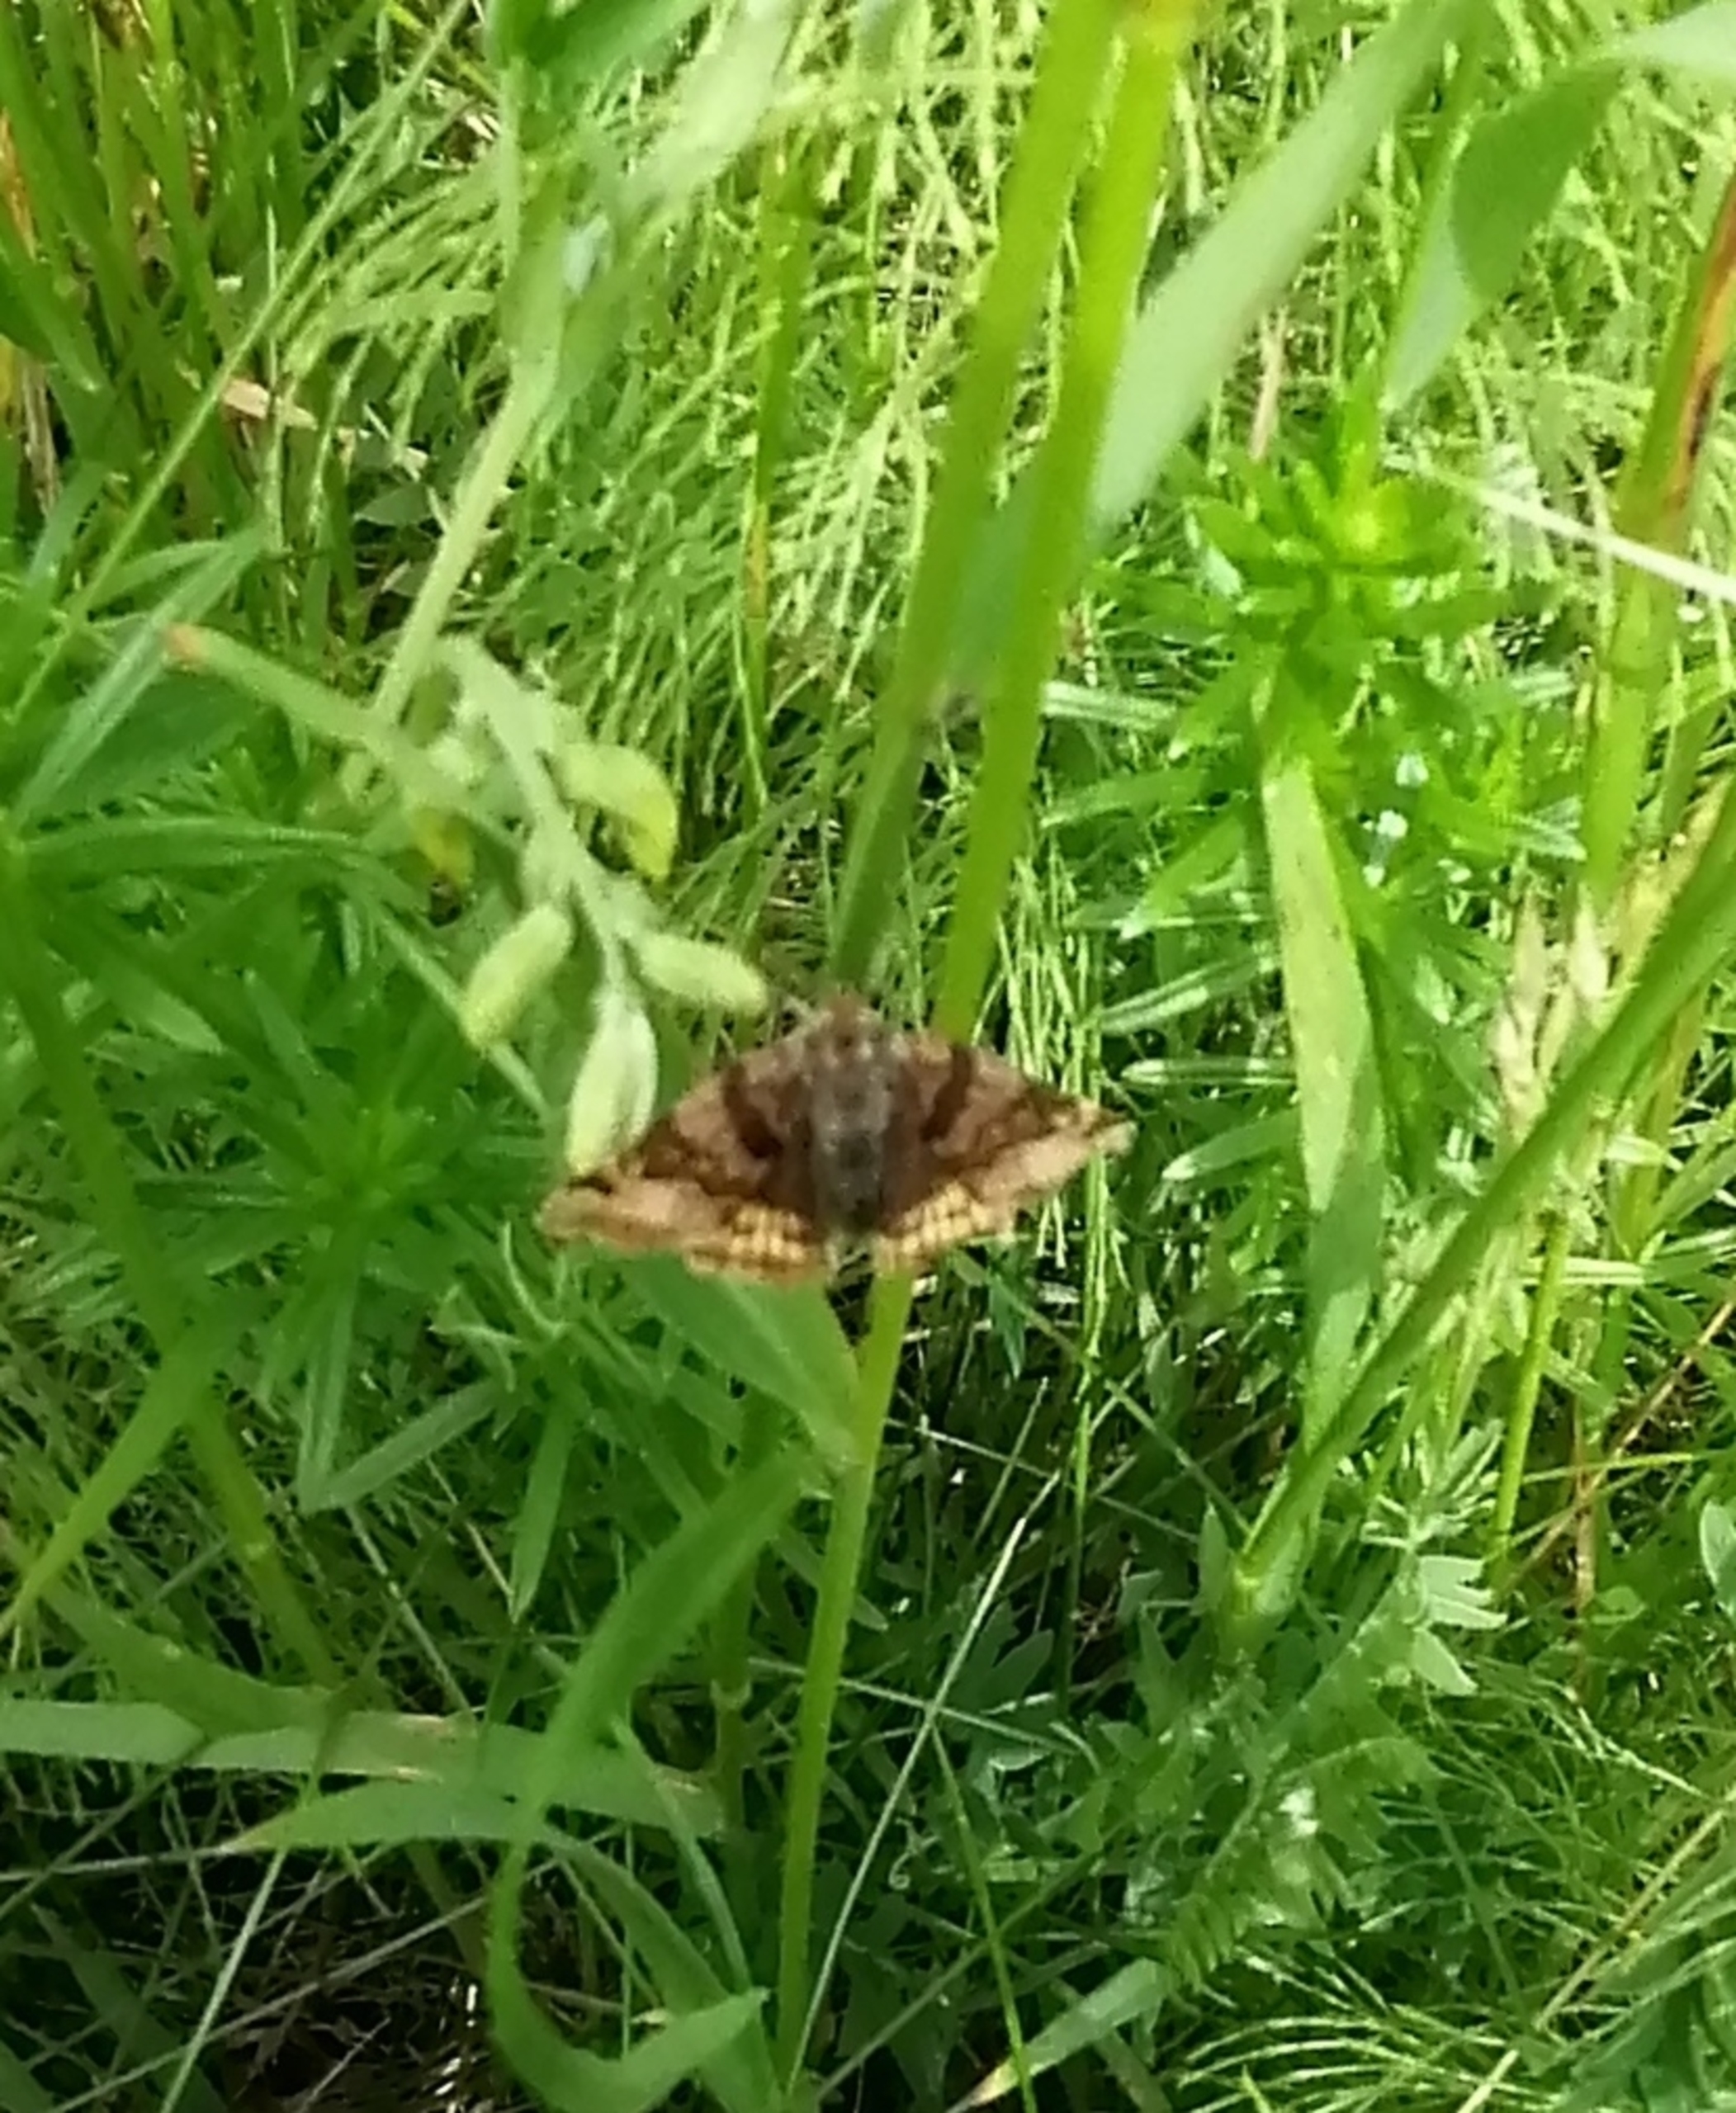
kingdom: Animalia
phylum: Arthropoda
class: Insecta
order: Lepidoptera
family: Erebidae
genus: Euclidia
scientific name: Euclidia glyphica
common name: Brun kløverugle
